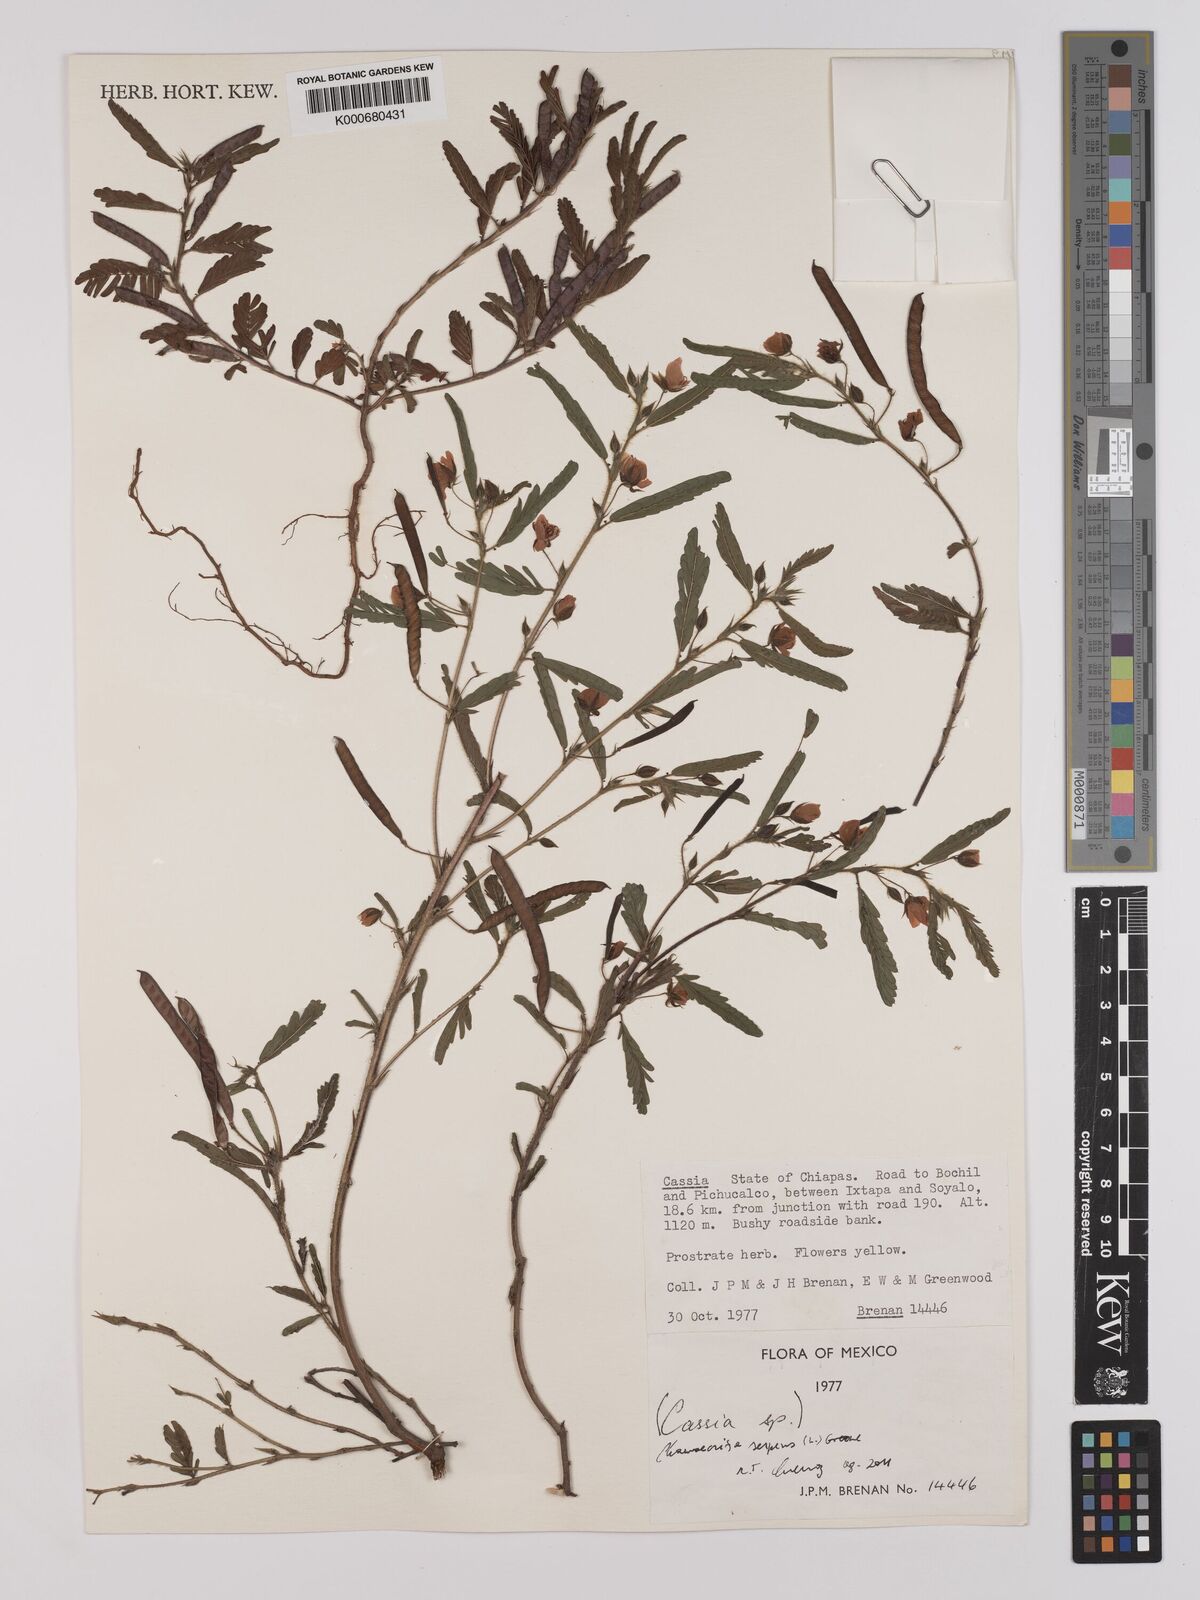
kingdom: Plantae
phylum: Tracheophyta
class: Magnoliopsida
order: Fabales
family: Fabaceae
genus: Chamaecrista
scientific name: Chamaecrista
